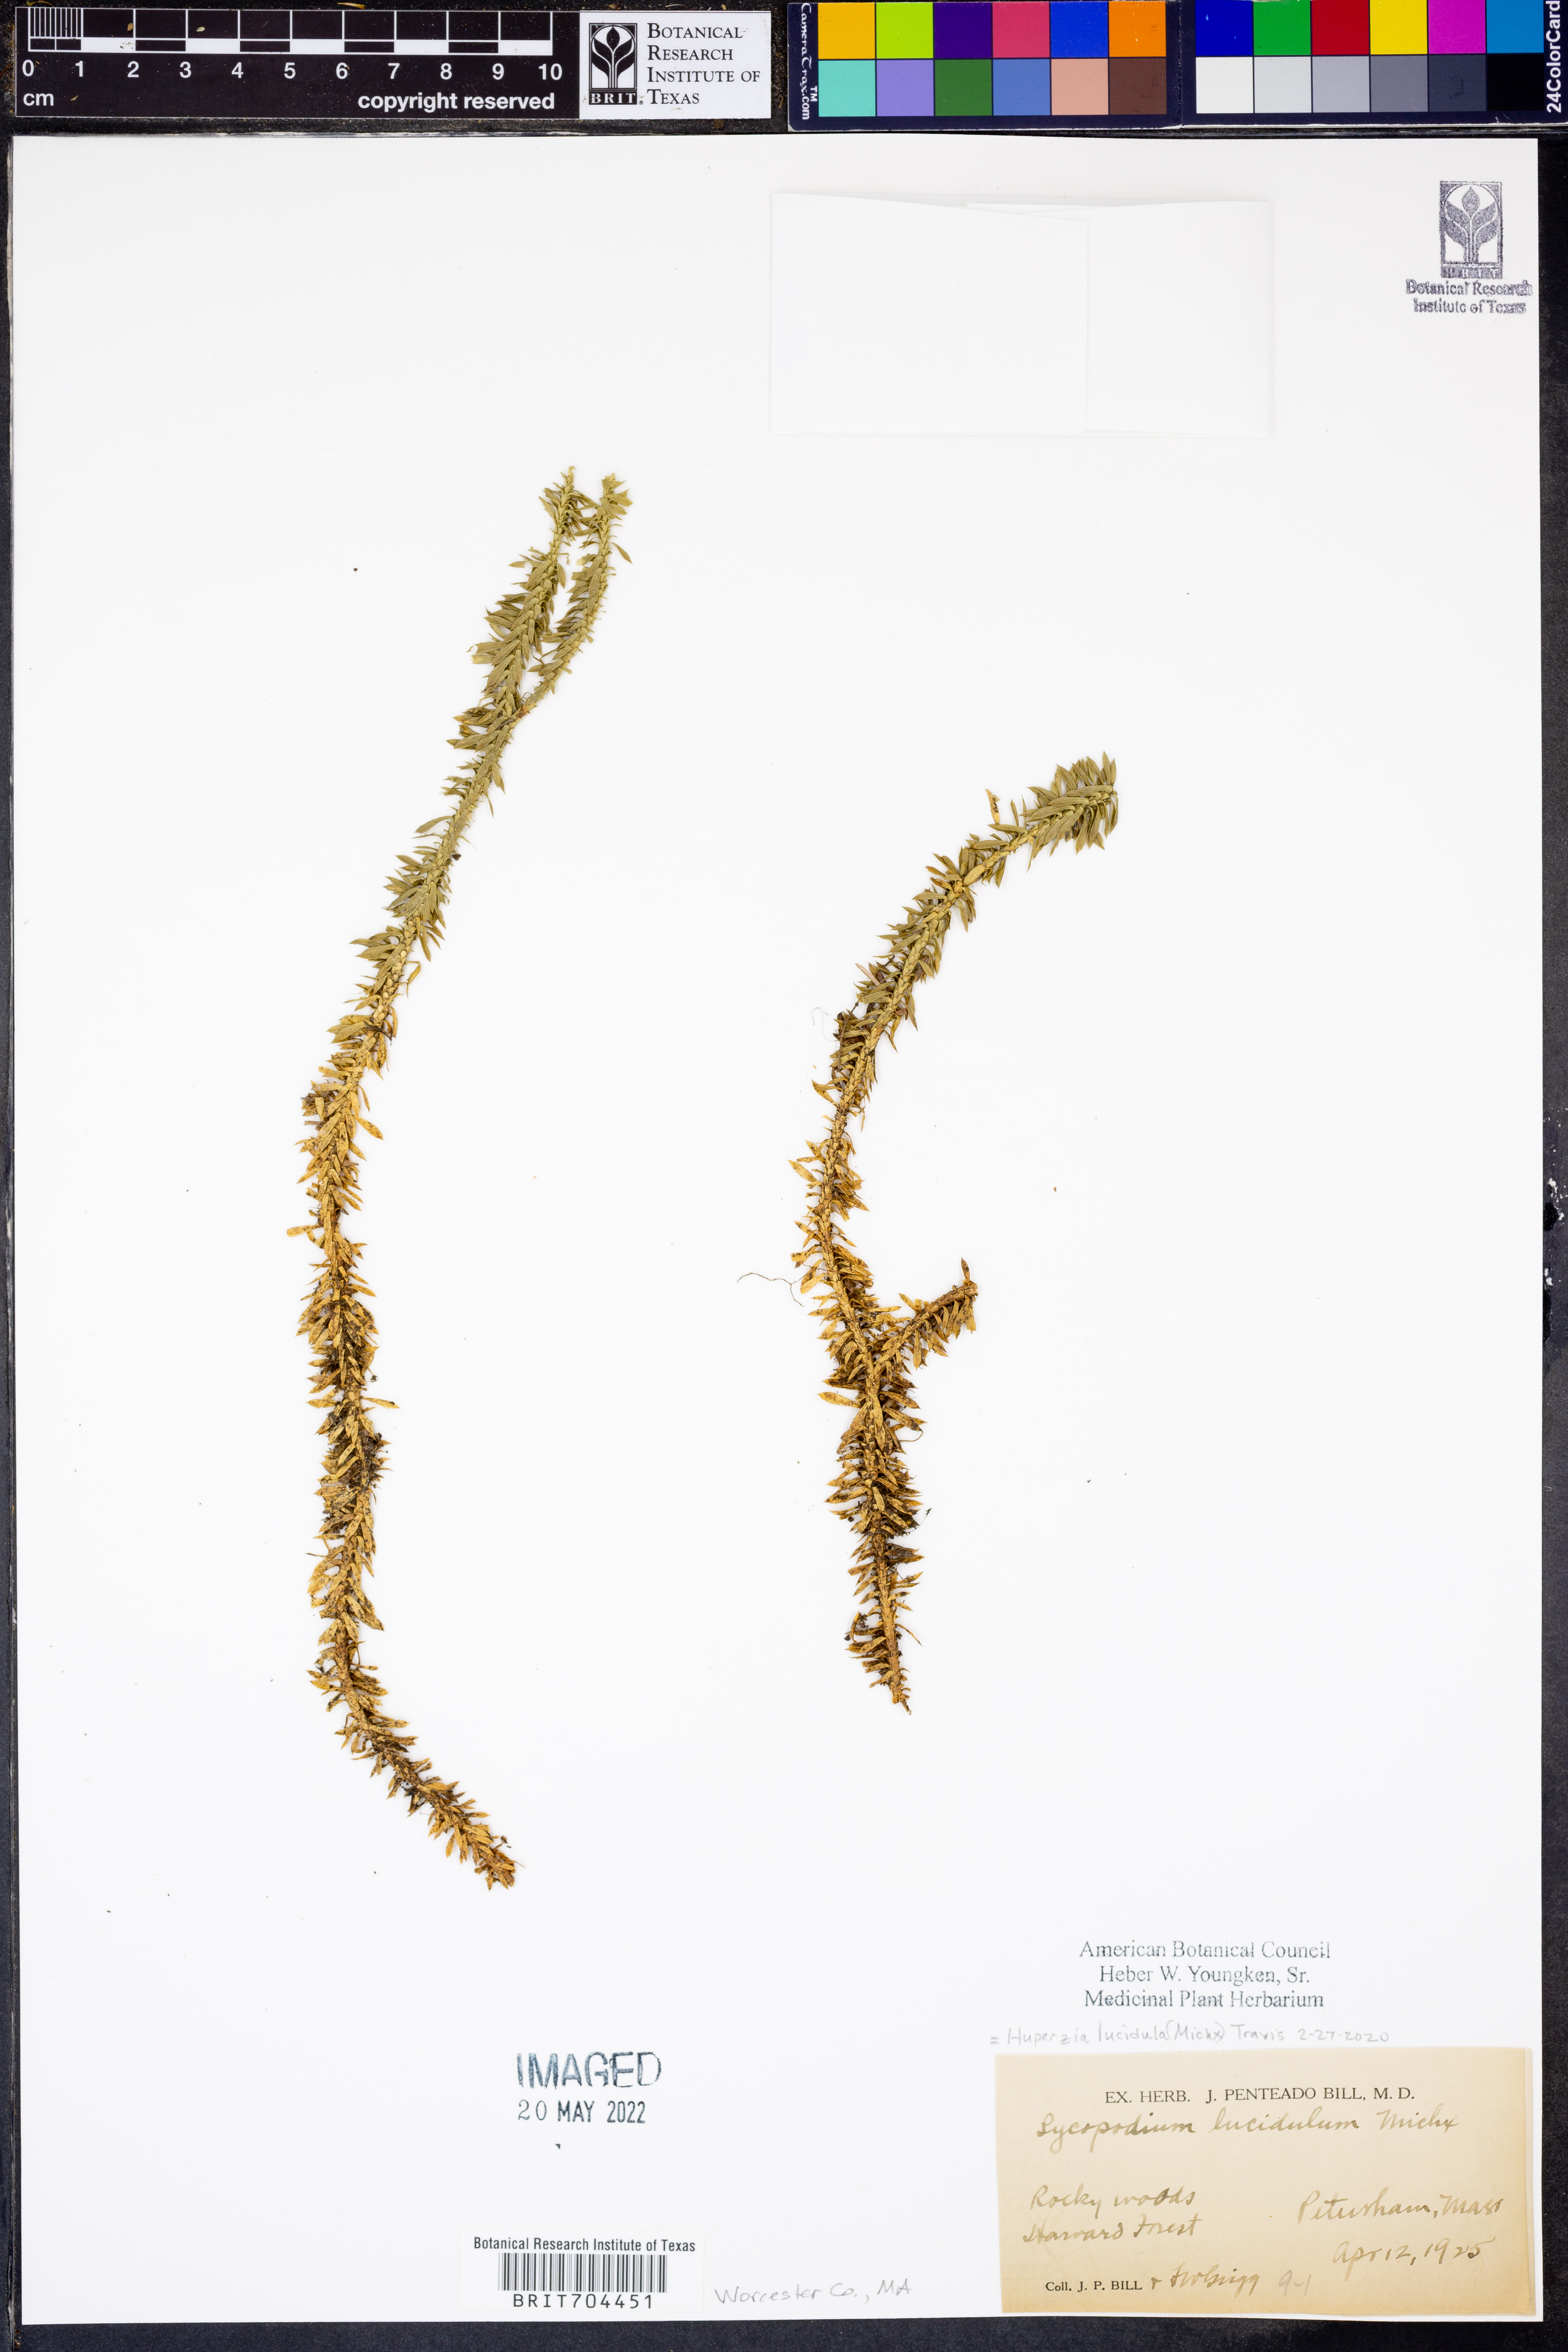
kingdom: Plantae
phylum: Tracheophyta
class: Lycopodiopsida
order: Lycopodiales
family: Lycopodiaceae
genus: Huperzia
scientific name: Huperzia lucidula
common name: Shining clubmoss
